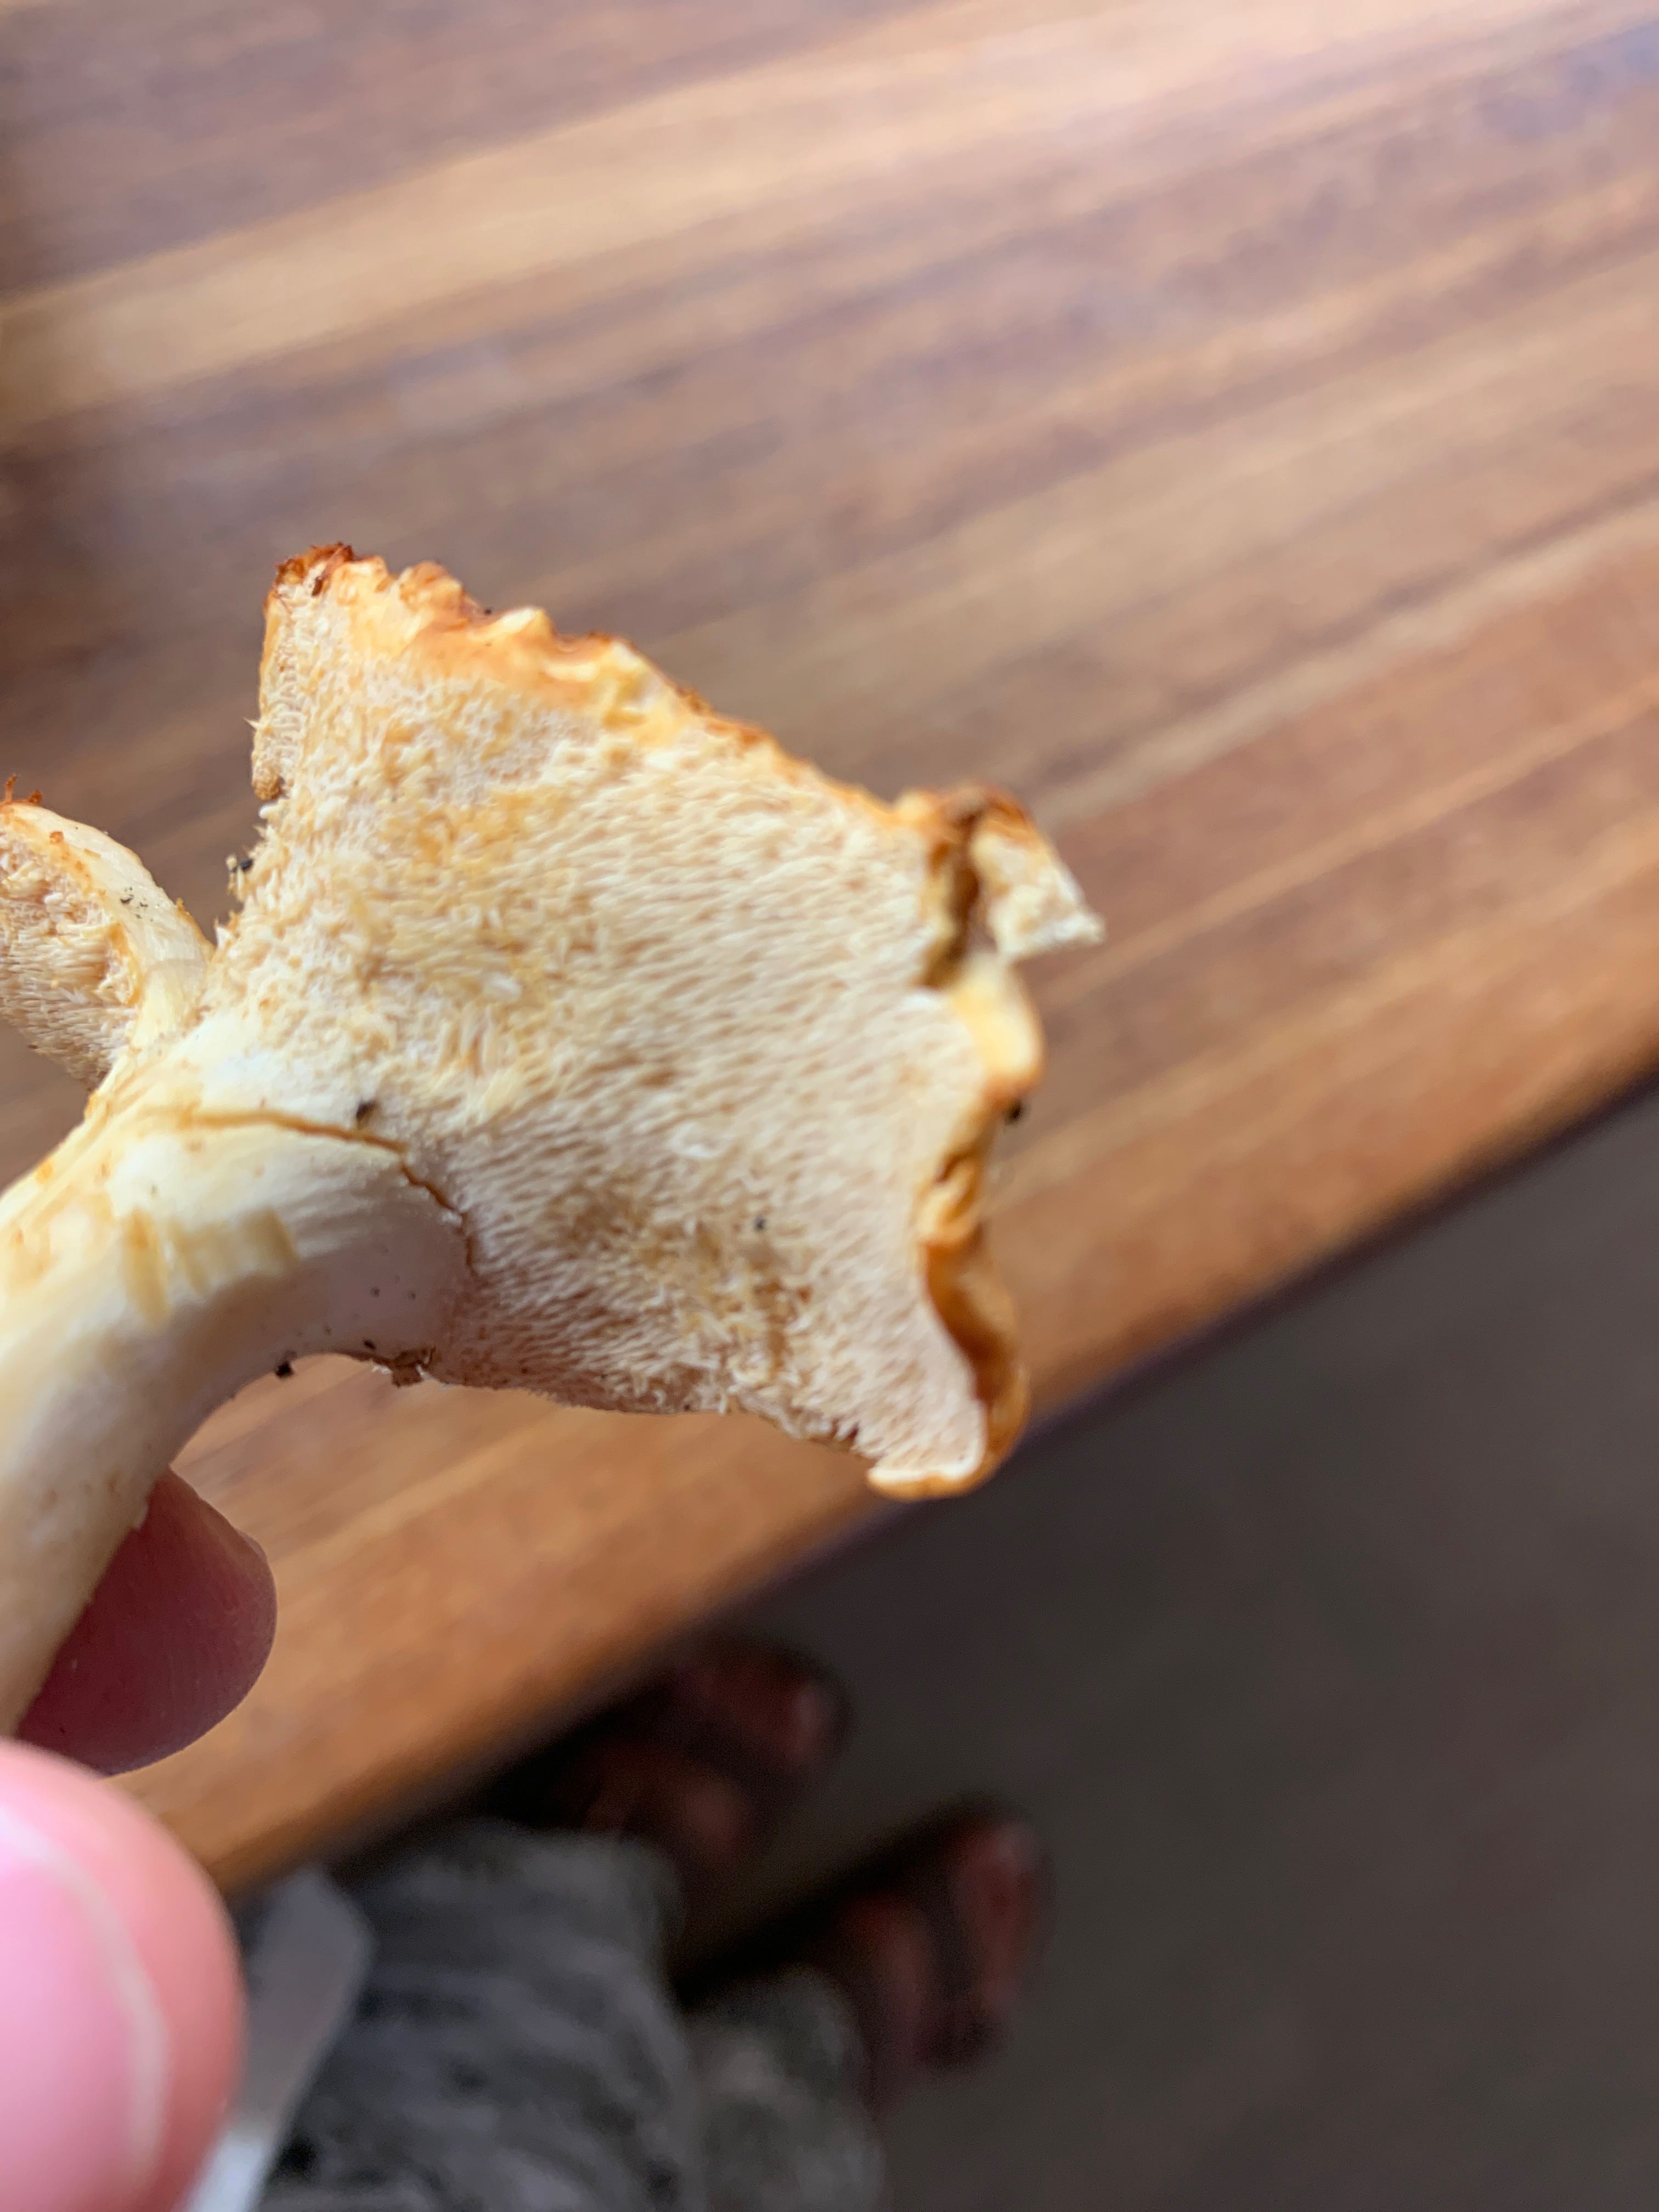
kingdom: Fungi
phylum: Basidiomycota
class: Agaricomycetes
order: Cantharellales
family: Hydnaceae
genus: Hydnum
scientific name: Hydnum
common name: pigsvamp
